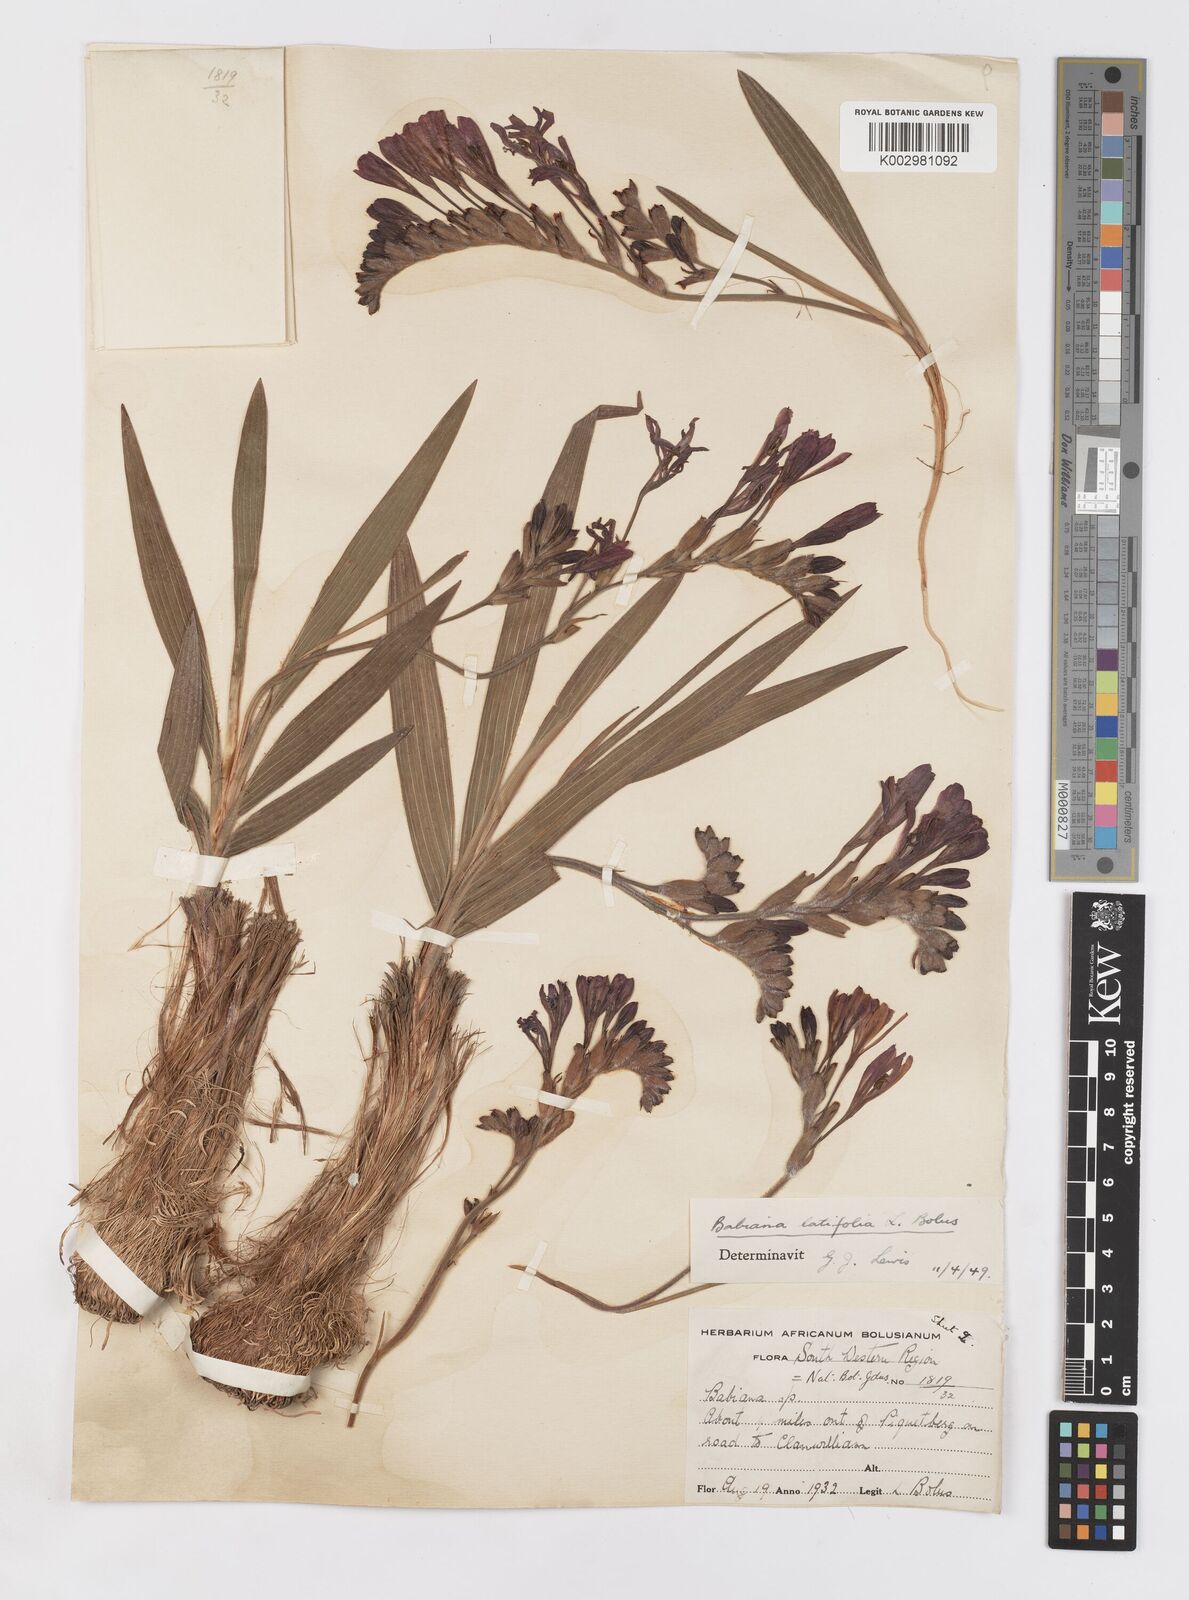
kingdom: Plantae
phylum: Tracheophyta
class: Liliopsida
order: Asparagales
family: Iridaceae
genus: Babiana
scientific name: Babiana ecklonii
